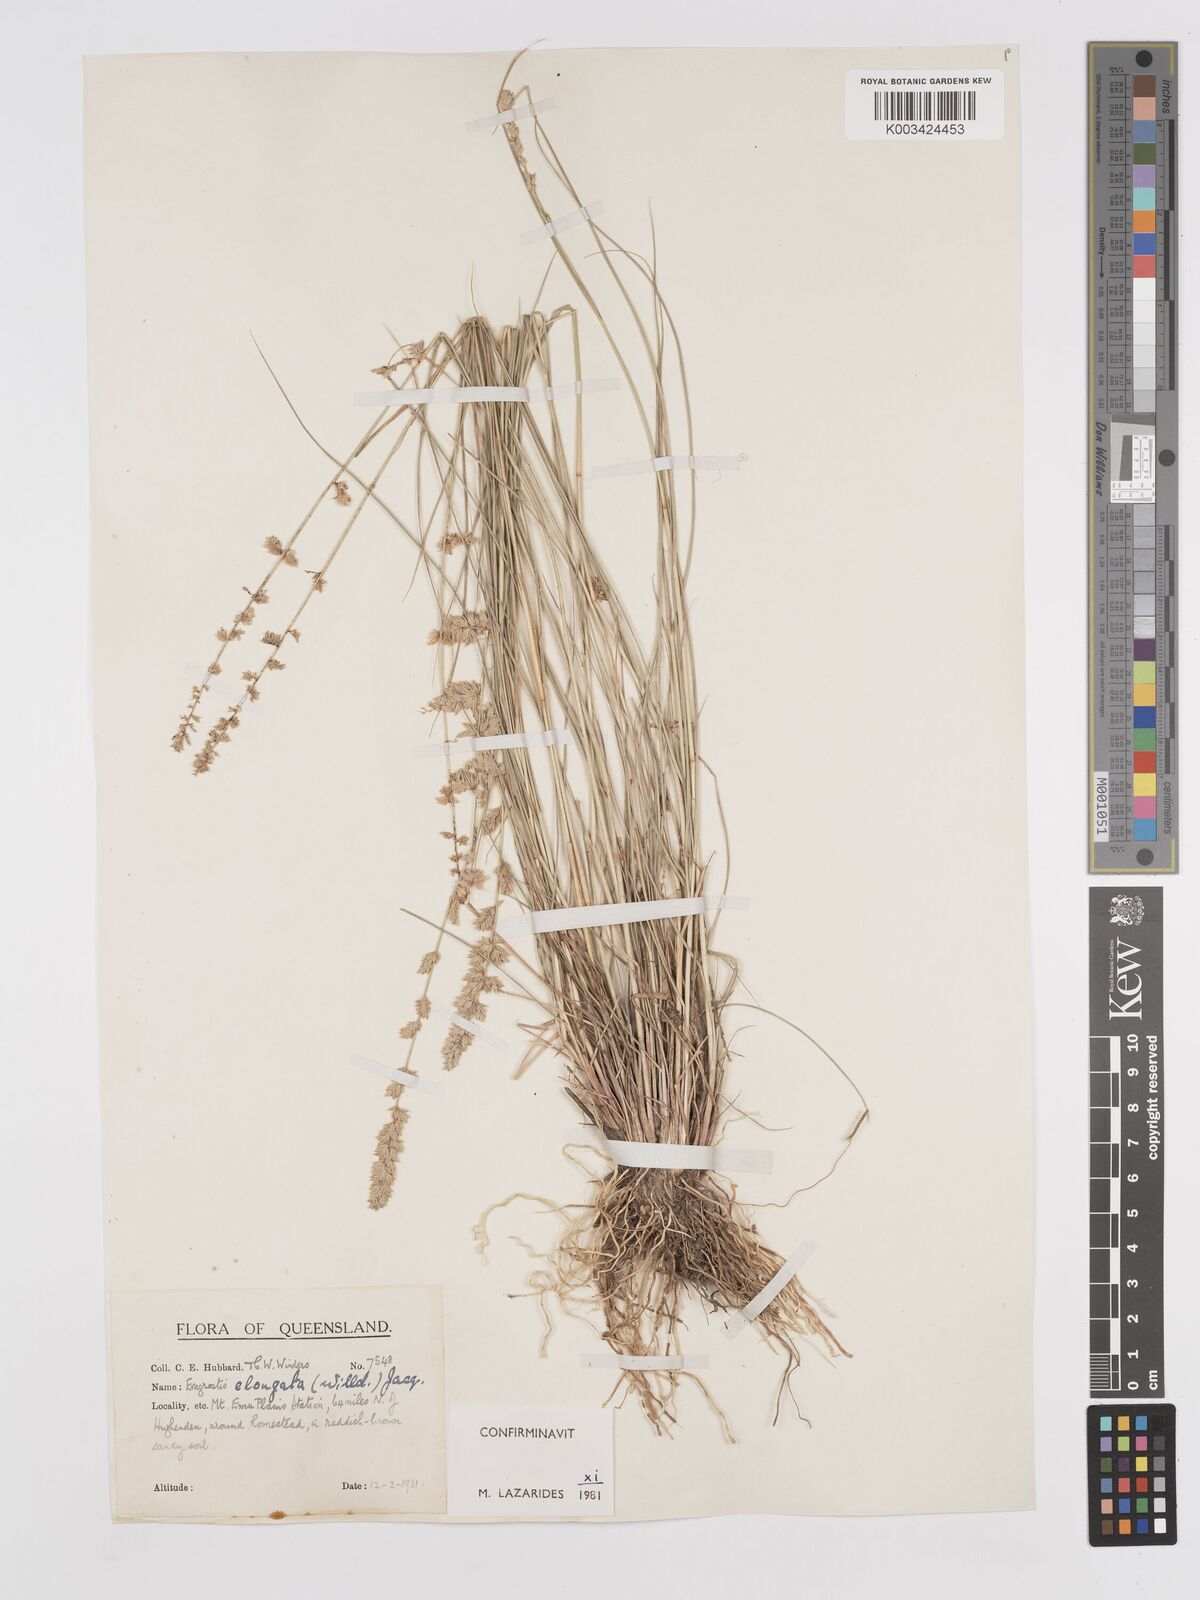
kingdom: Plantae
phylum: Tracheophyta
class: Liliopsida
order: Poales
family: Poaceae
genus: Eragrostis
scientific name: Eragrostis elongata
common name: Long lovegrass
